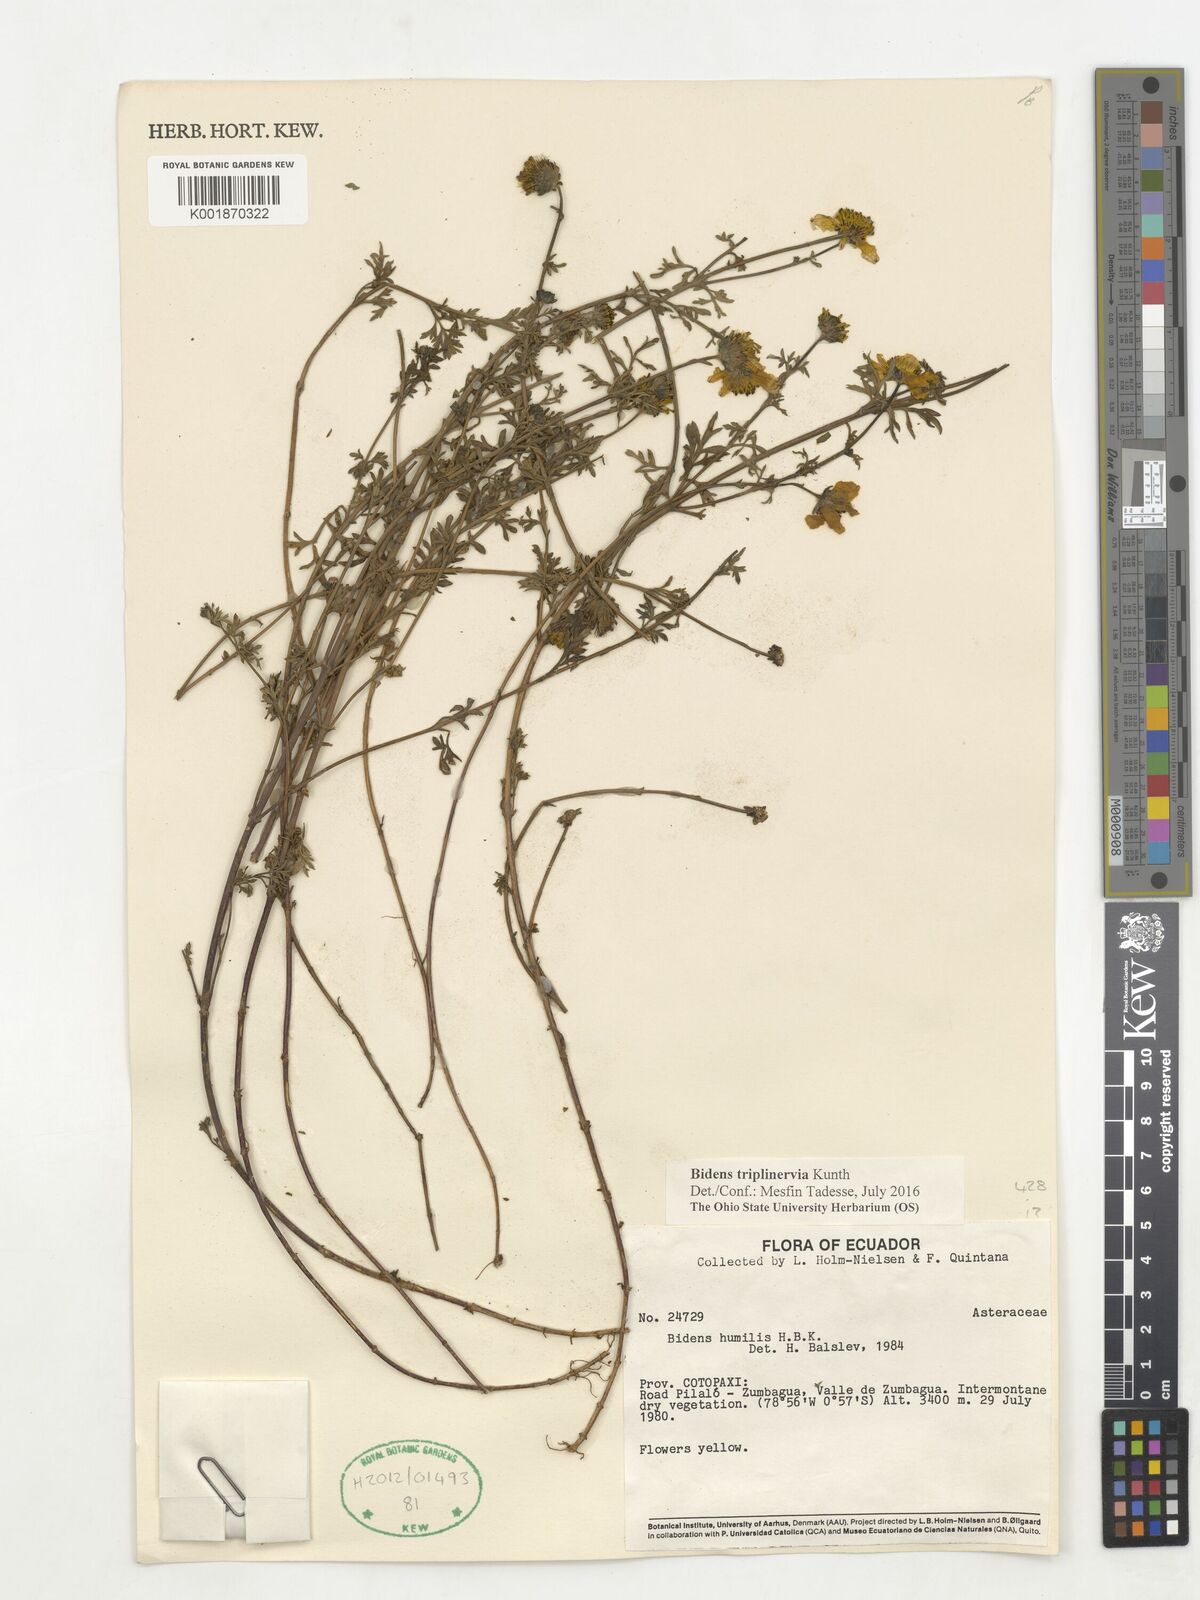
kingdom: Plantae
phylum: Tracheophyta
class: Magnoliopsida
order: Asterales
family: Asteraceae
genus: Bidens
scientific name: Bidens triplinervia
